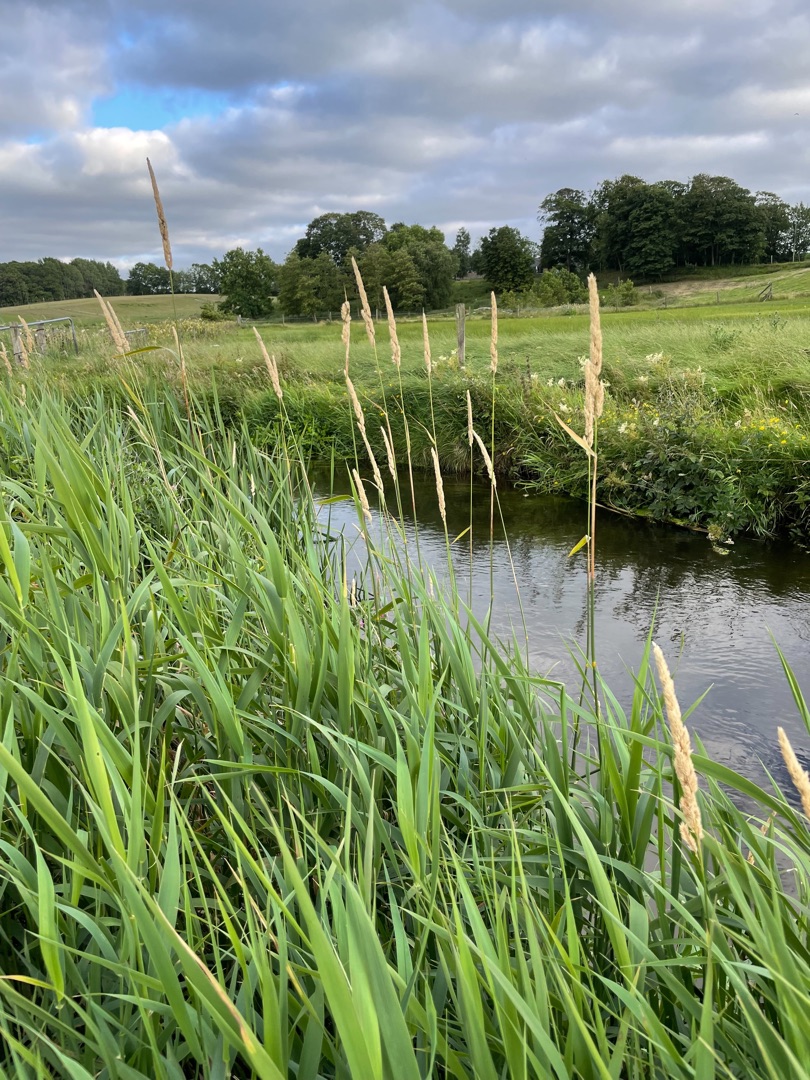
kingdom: Plantae
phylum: Tracheophyta
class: Liliopsida
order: Poales
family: Poaceae
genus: Phalaris
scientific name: Phalaris arundinacea
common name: Rørgræs
